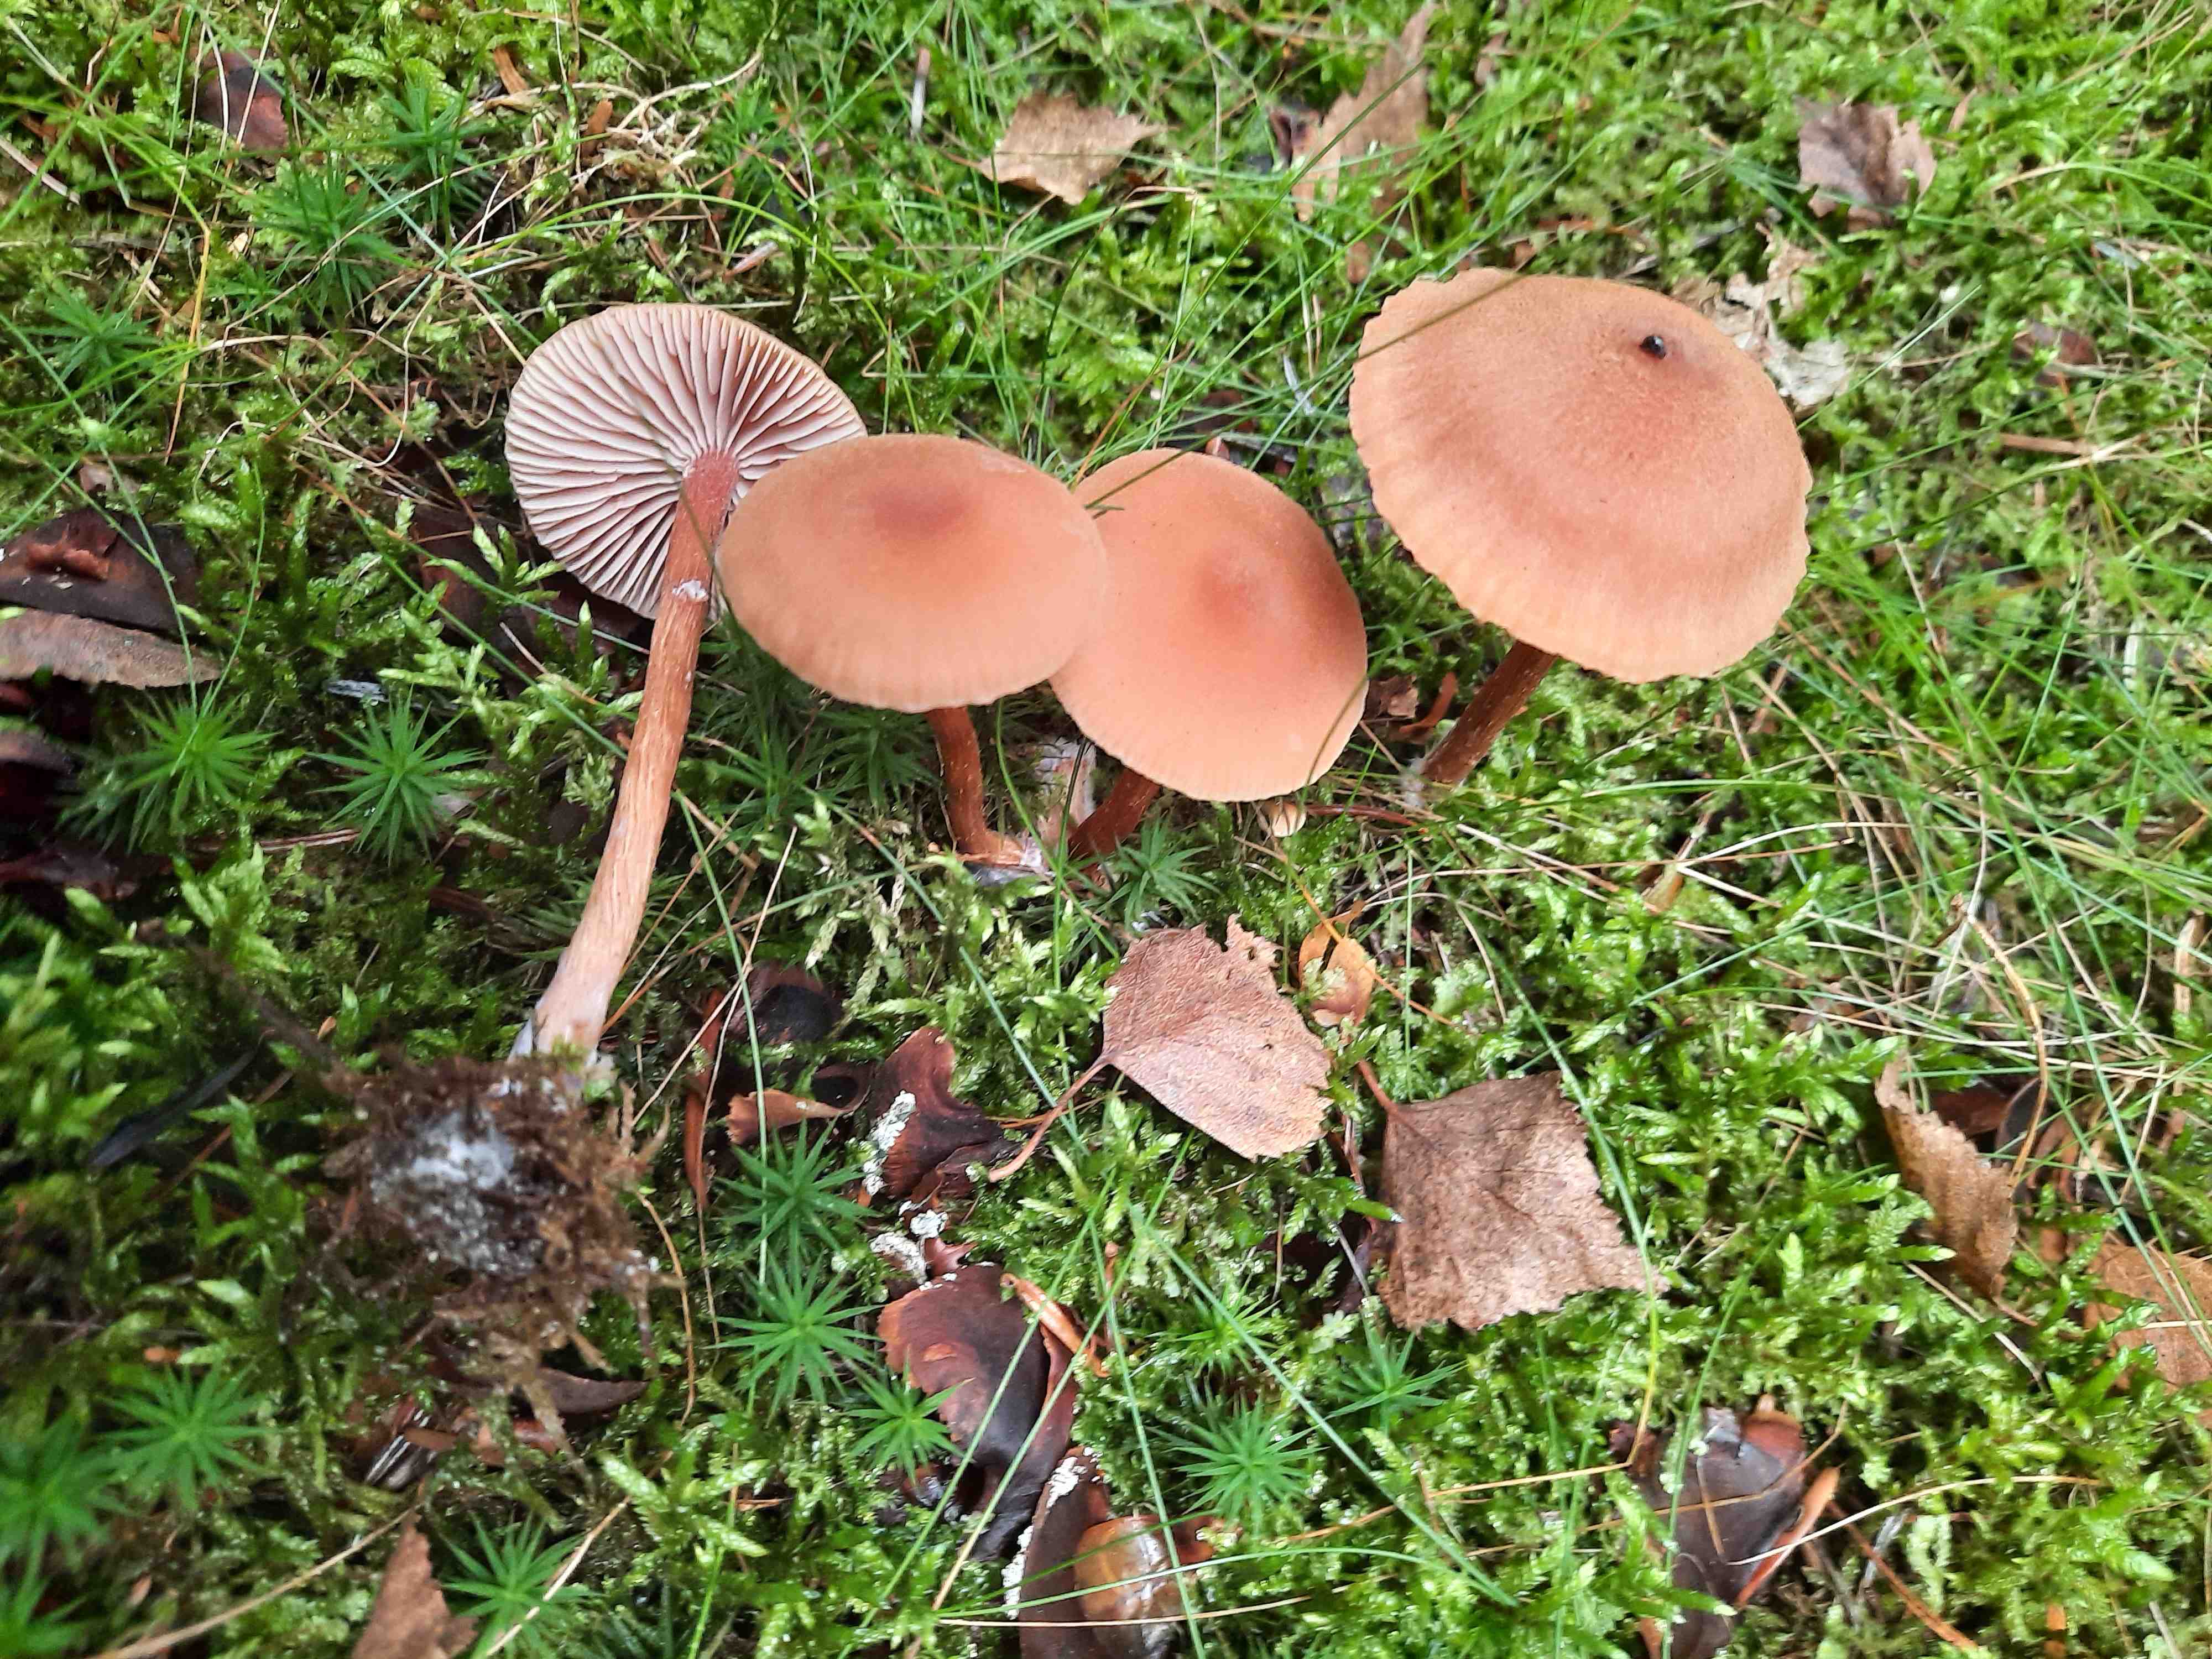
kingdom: Fungi
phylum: Basidiomycota
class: Agaricomycetes
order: Agaricales
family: Hydnangiaceae
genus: Laccaria
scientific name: Laccaria proxima
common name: stor ametysthat
